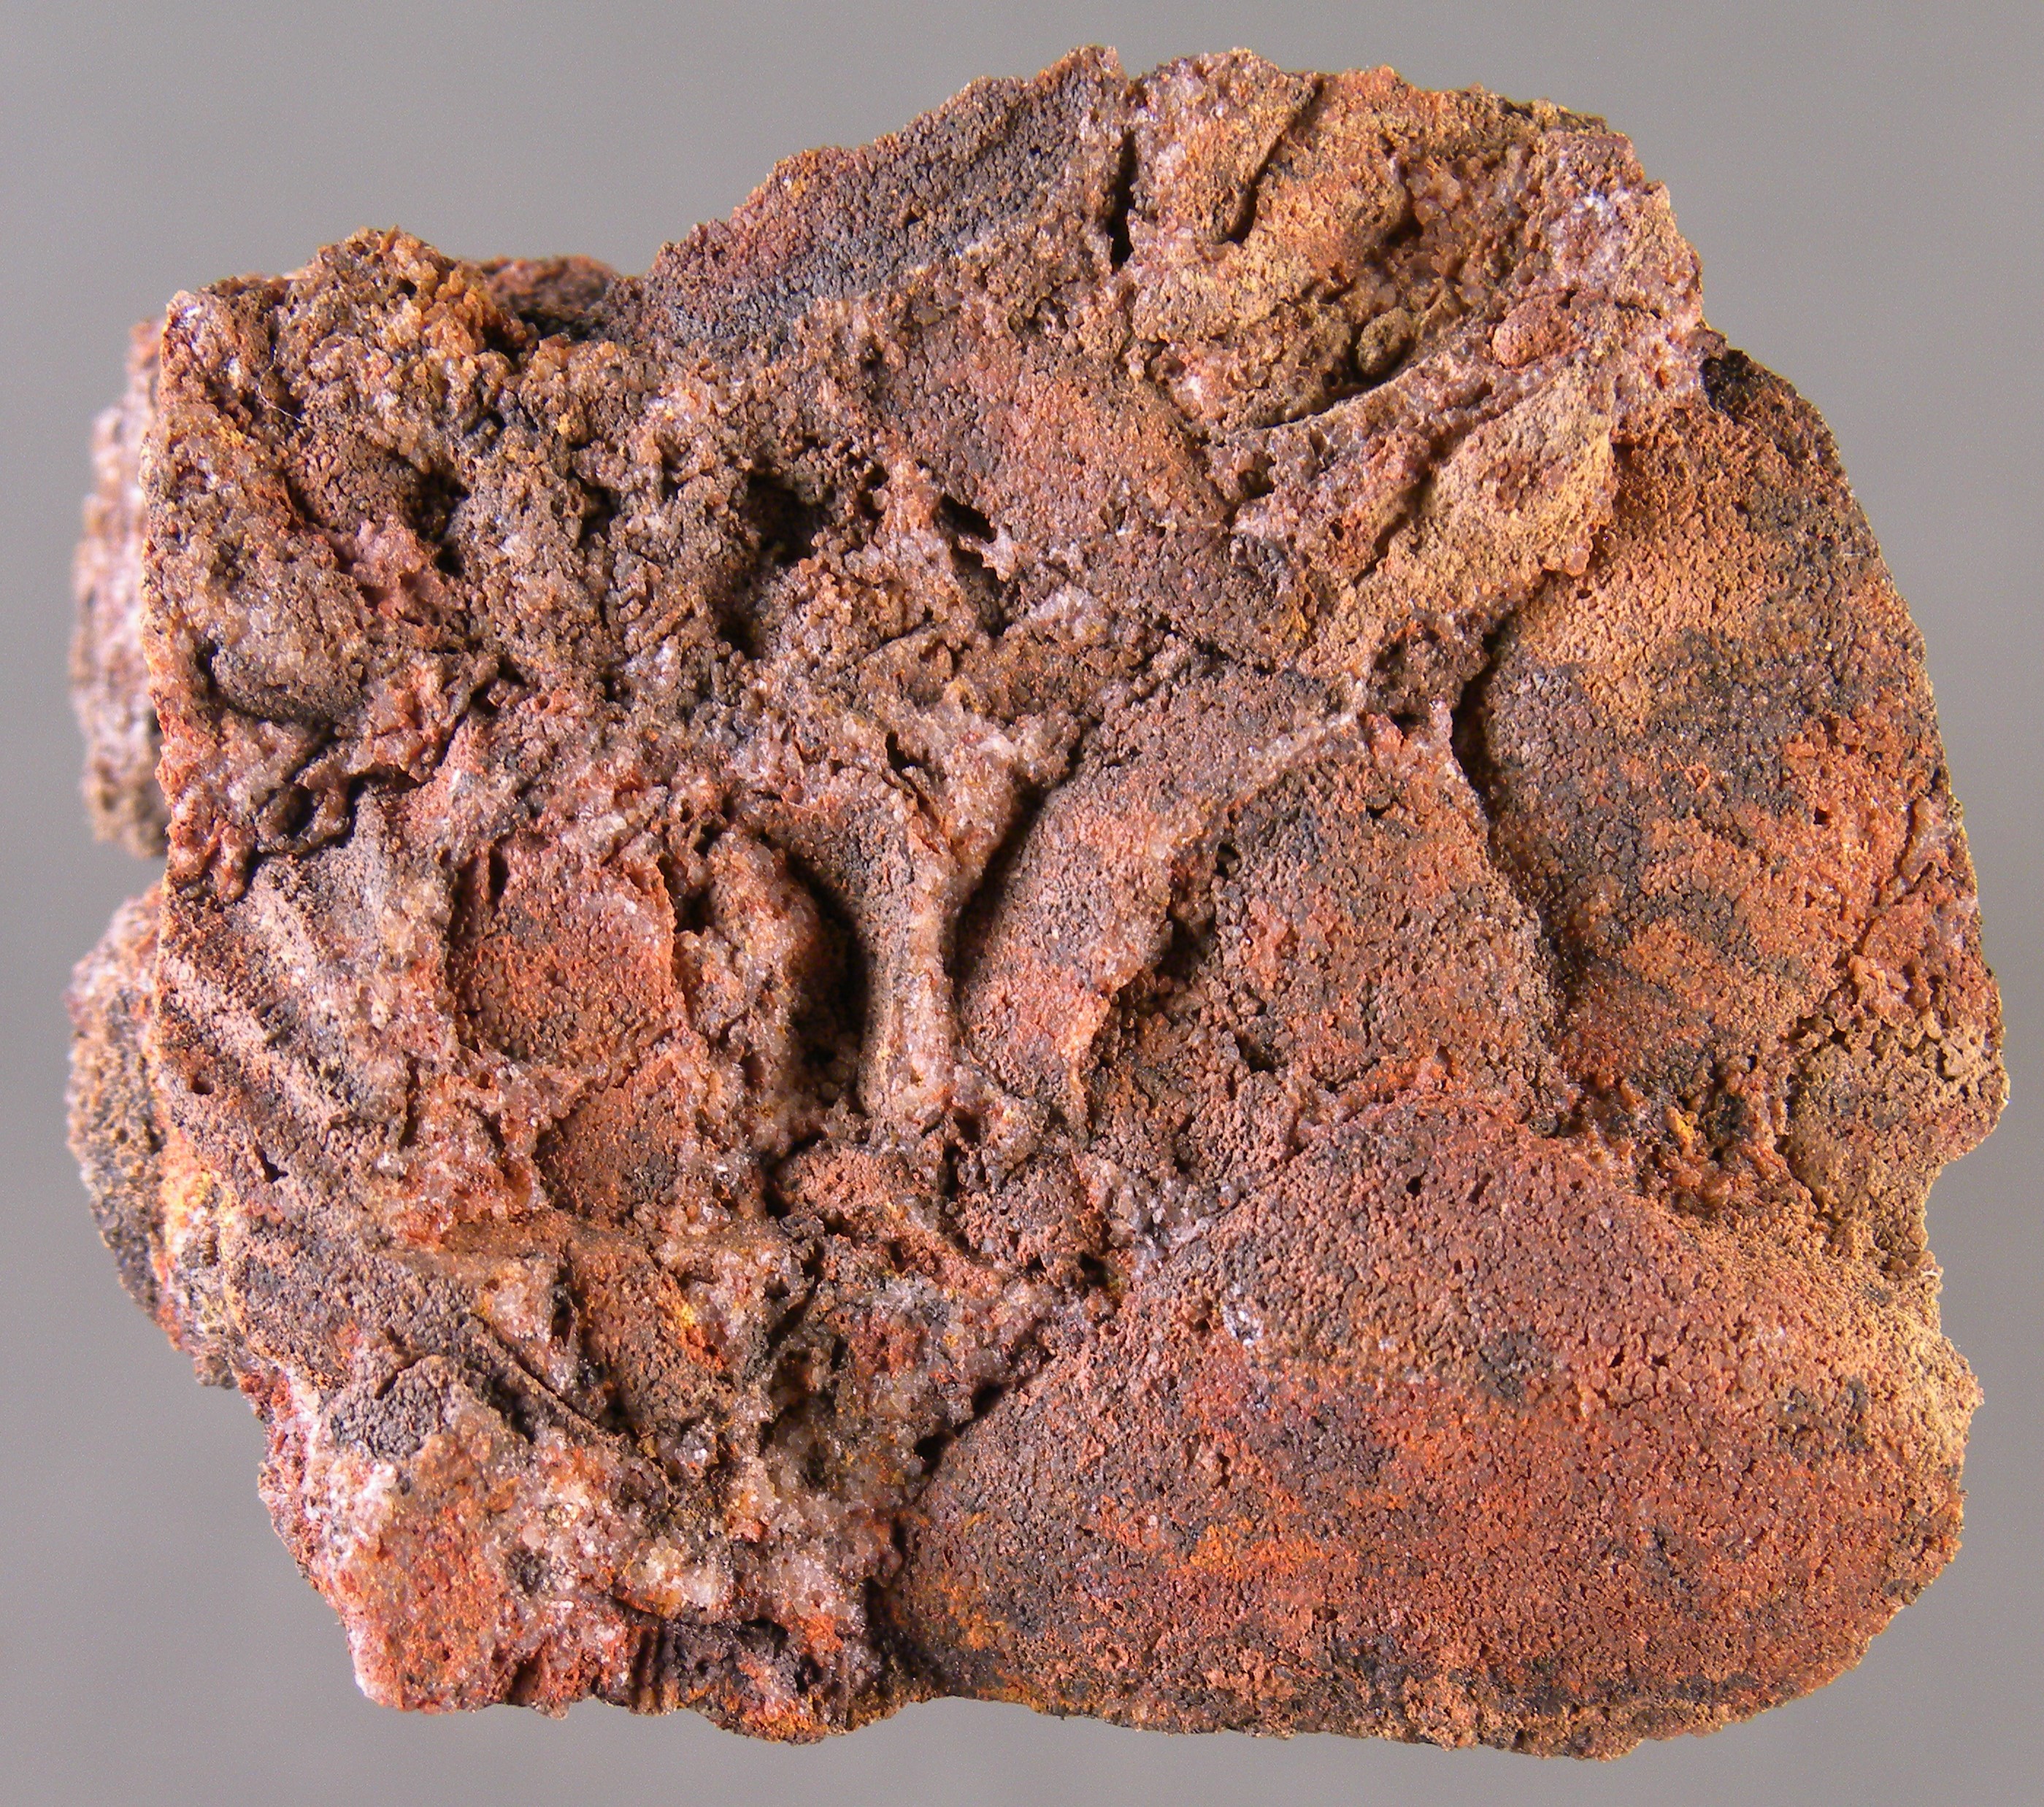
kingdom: Animalia
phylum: Mollusca
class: Bivalvia
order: Nuculanida
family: Nuculanidae
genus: Phestia
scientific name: Phestia
